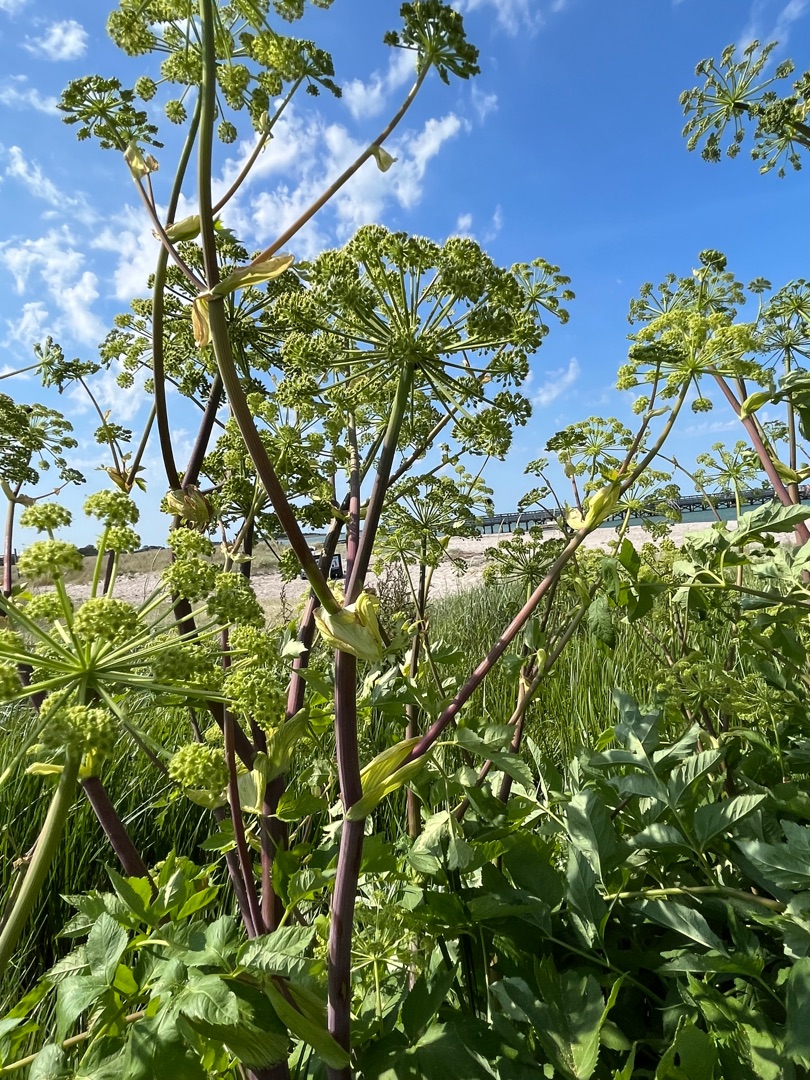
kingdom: Plantae
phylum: Tracheophyta
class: Magnoliopsida
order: Apiales
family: Apiaceae
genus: Angelica
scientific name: Angelica archangelica
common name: Strand-kvan
